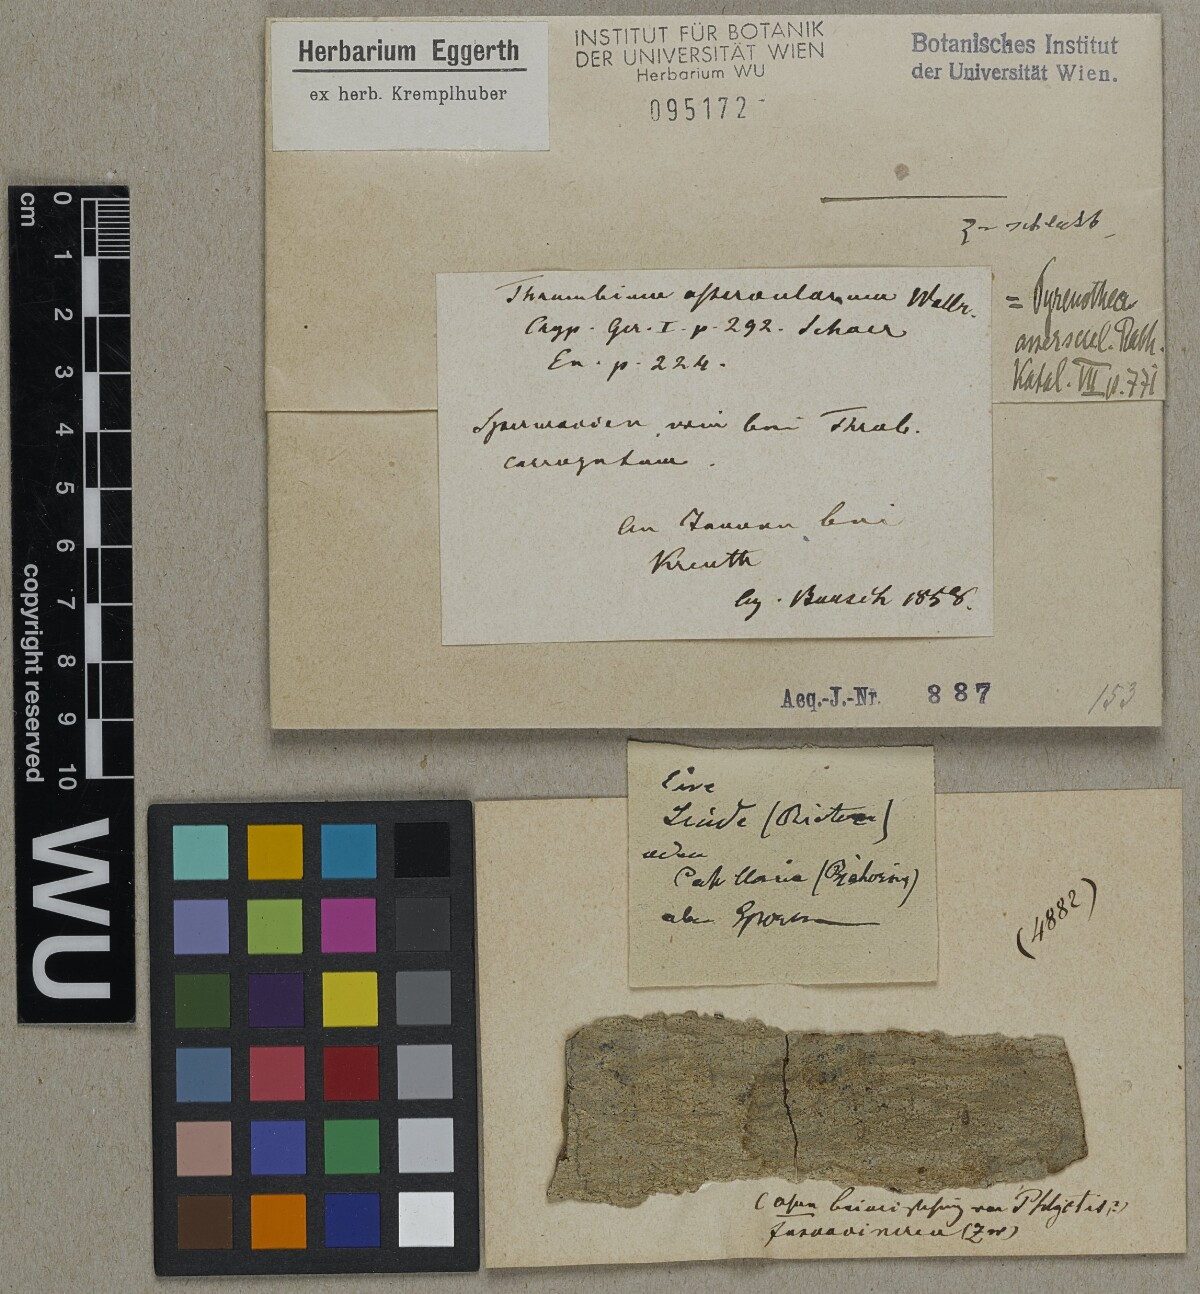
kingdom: Fungi
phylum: Ascomycota
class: Arthoniomycetes
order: Arthoniales
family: Roccellaceae
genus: Pyrenotea
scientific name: Pyrenotea
